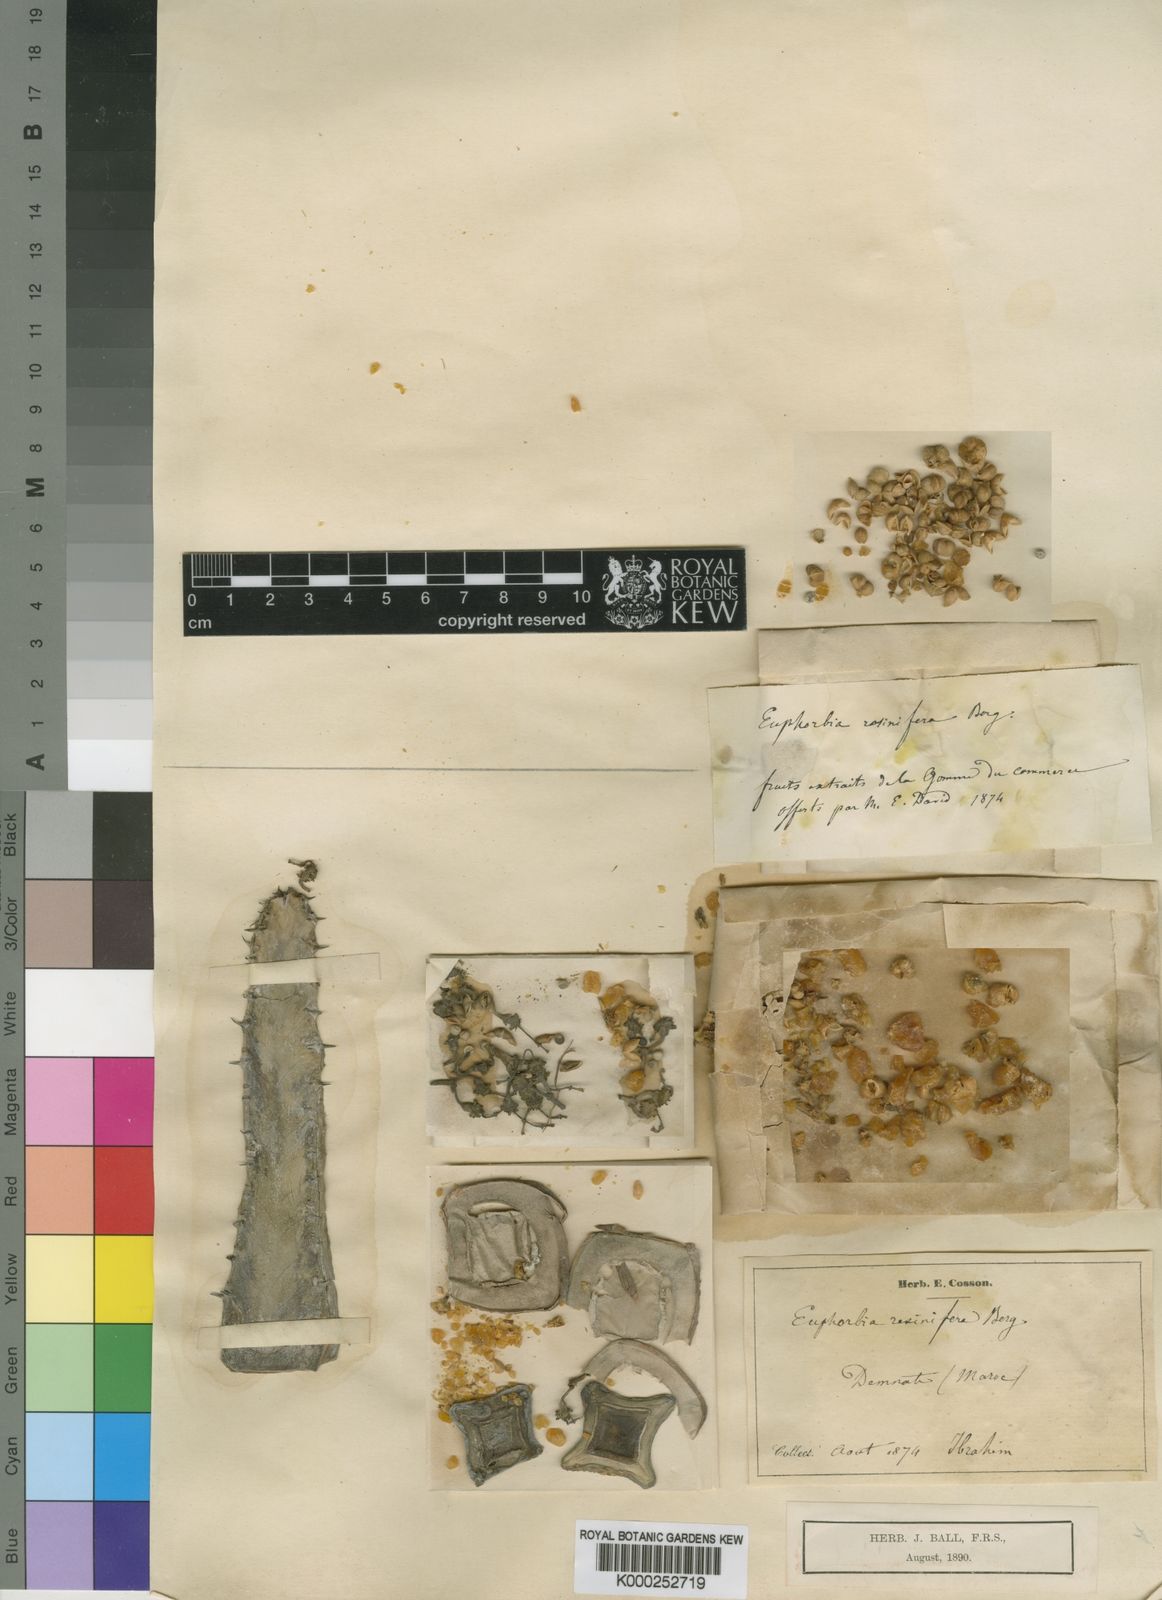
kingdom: Plantae
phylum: Tracheophyta
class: Magnoliopsida
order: Malpighiales
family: Euphorbiaceae
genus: Euphorbia
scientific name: Euphorbia resinifera
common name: African spurge
